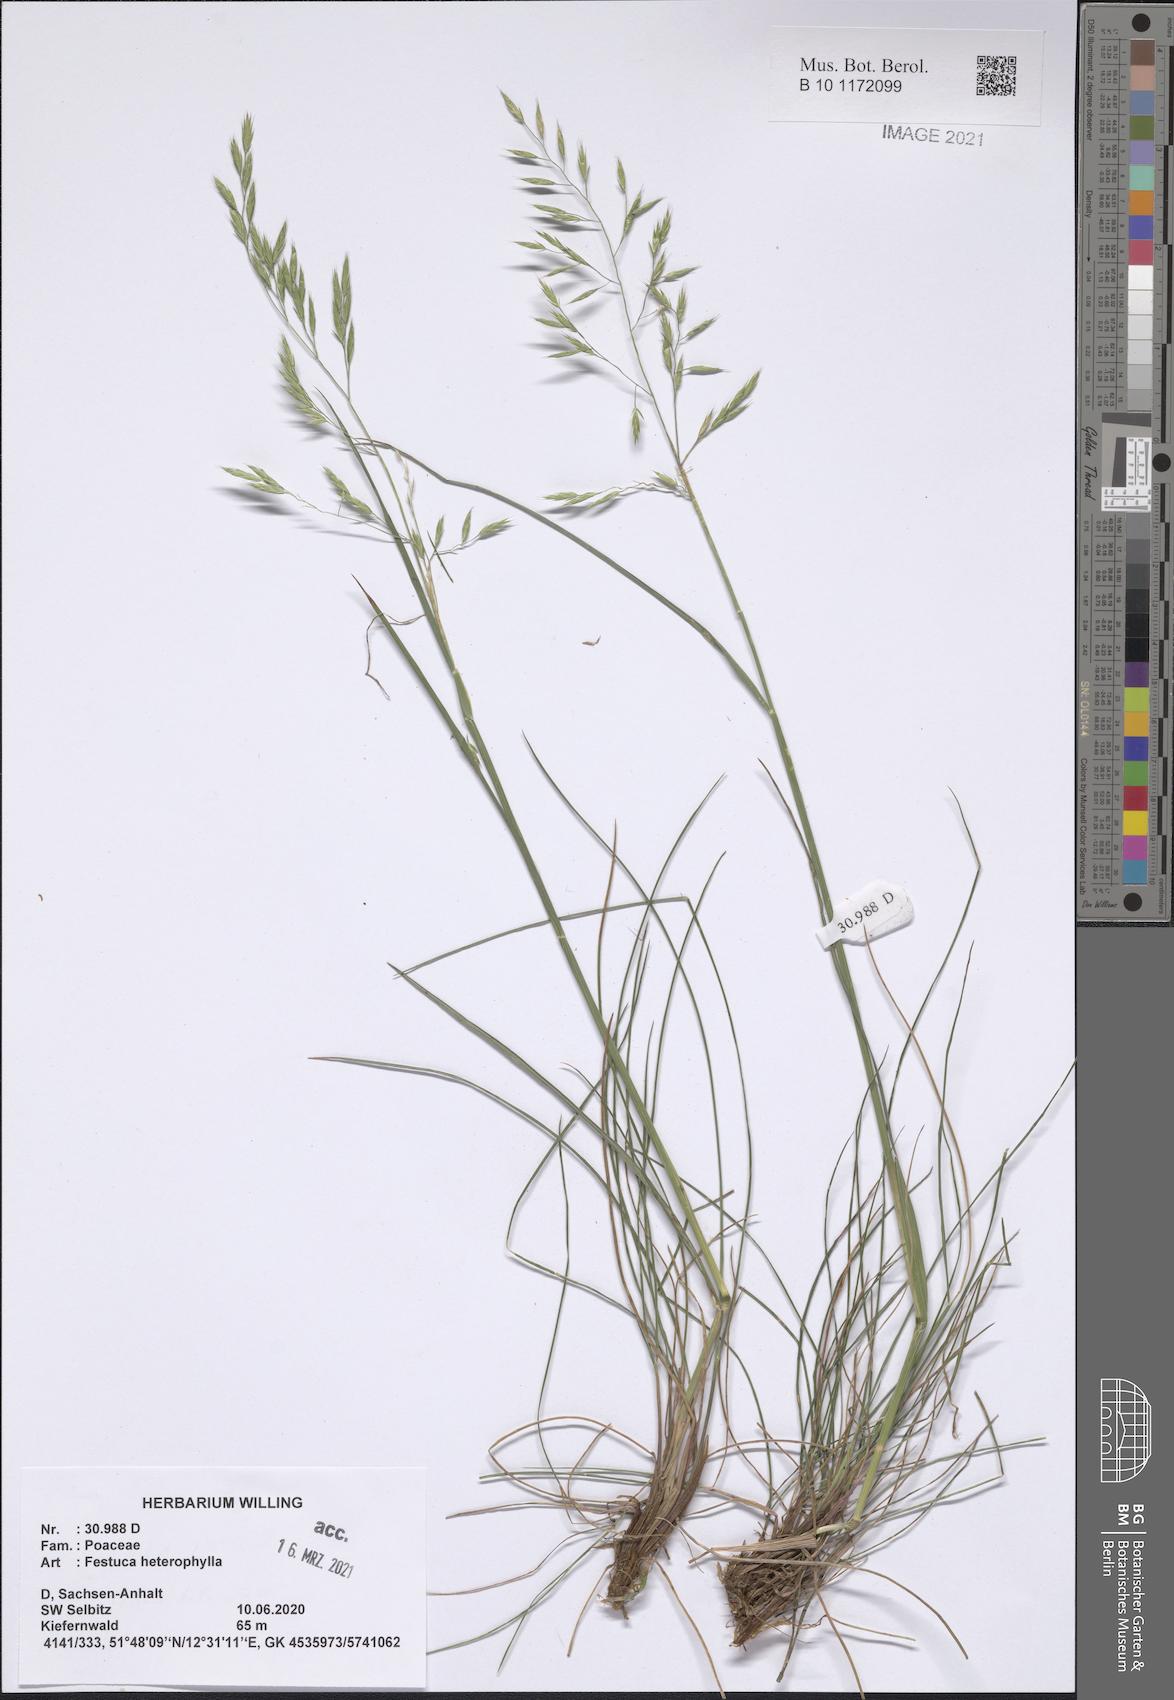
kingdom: Plantae
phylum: Tracheophyta
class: Liliopsida
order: Poales
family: Poaceae
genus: Festuca
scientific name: Festuca heterophylla
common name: Various-leaved fescue
